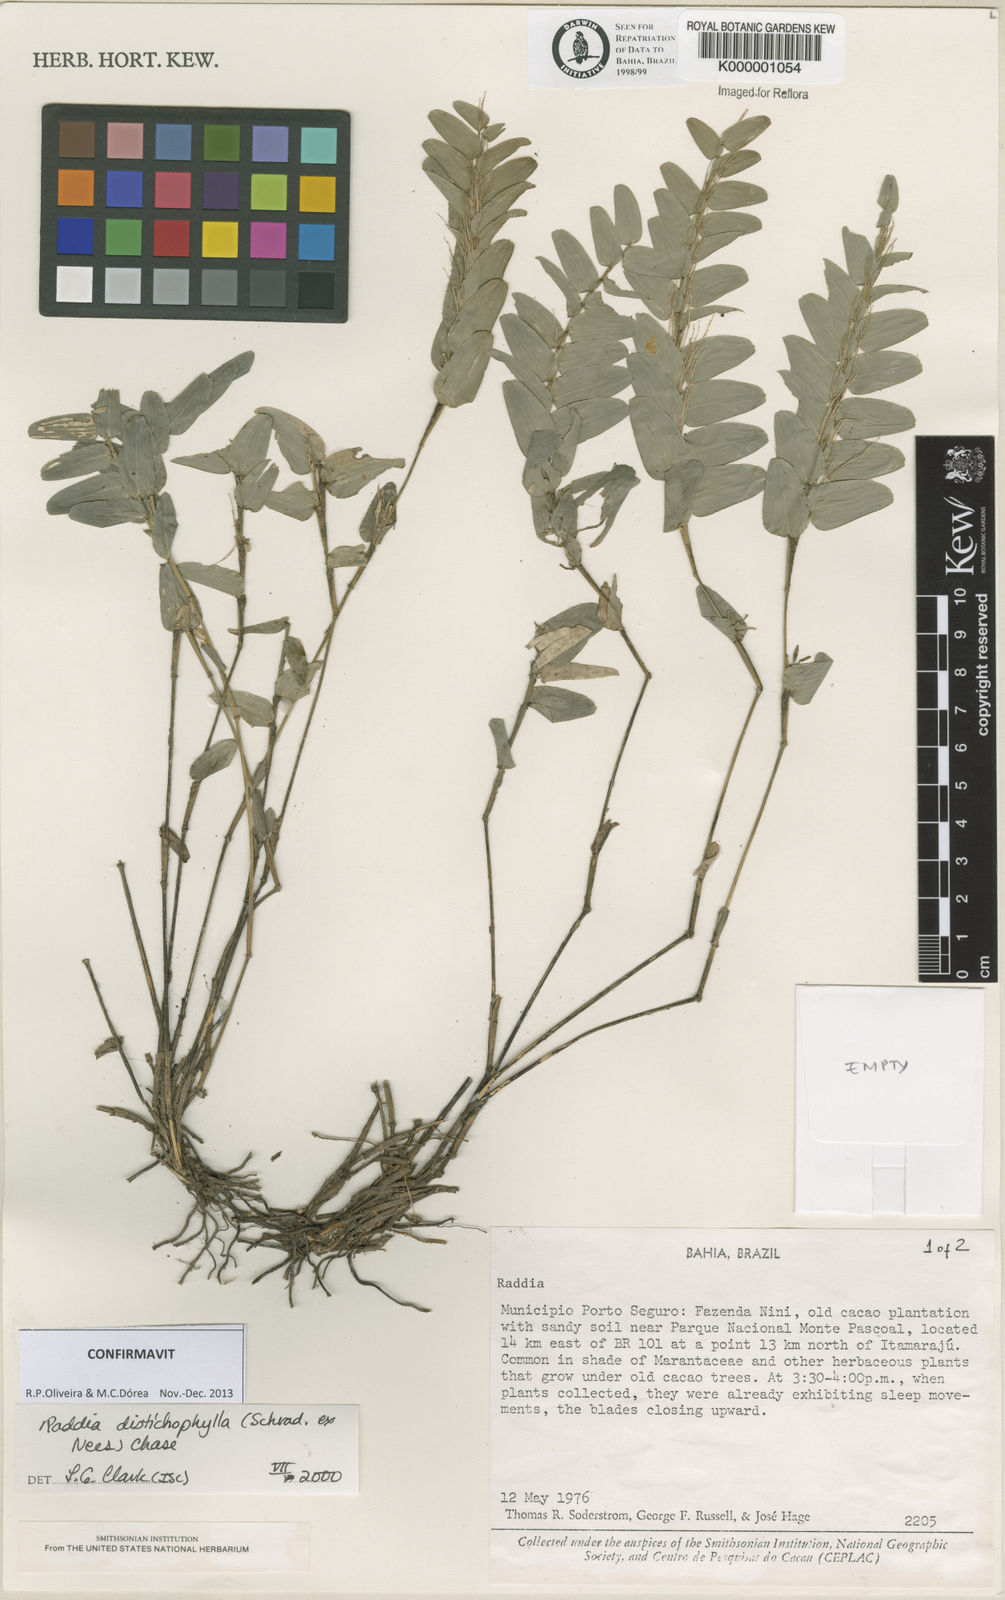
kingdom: Plantae
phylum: Tracheophyta
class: Liliopsida
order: Poales
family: Poaceae
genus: Raddia
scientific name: Raddia distichophylla
